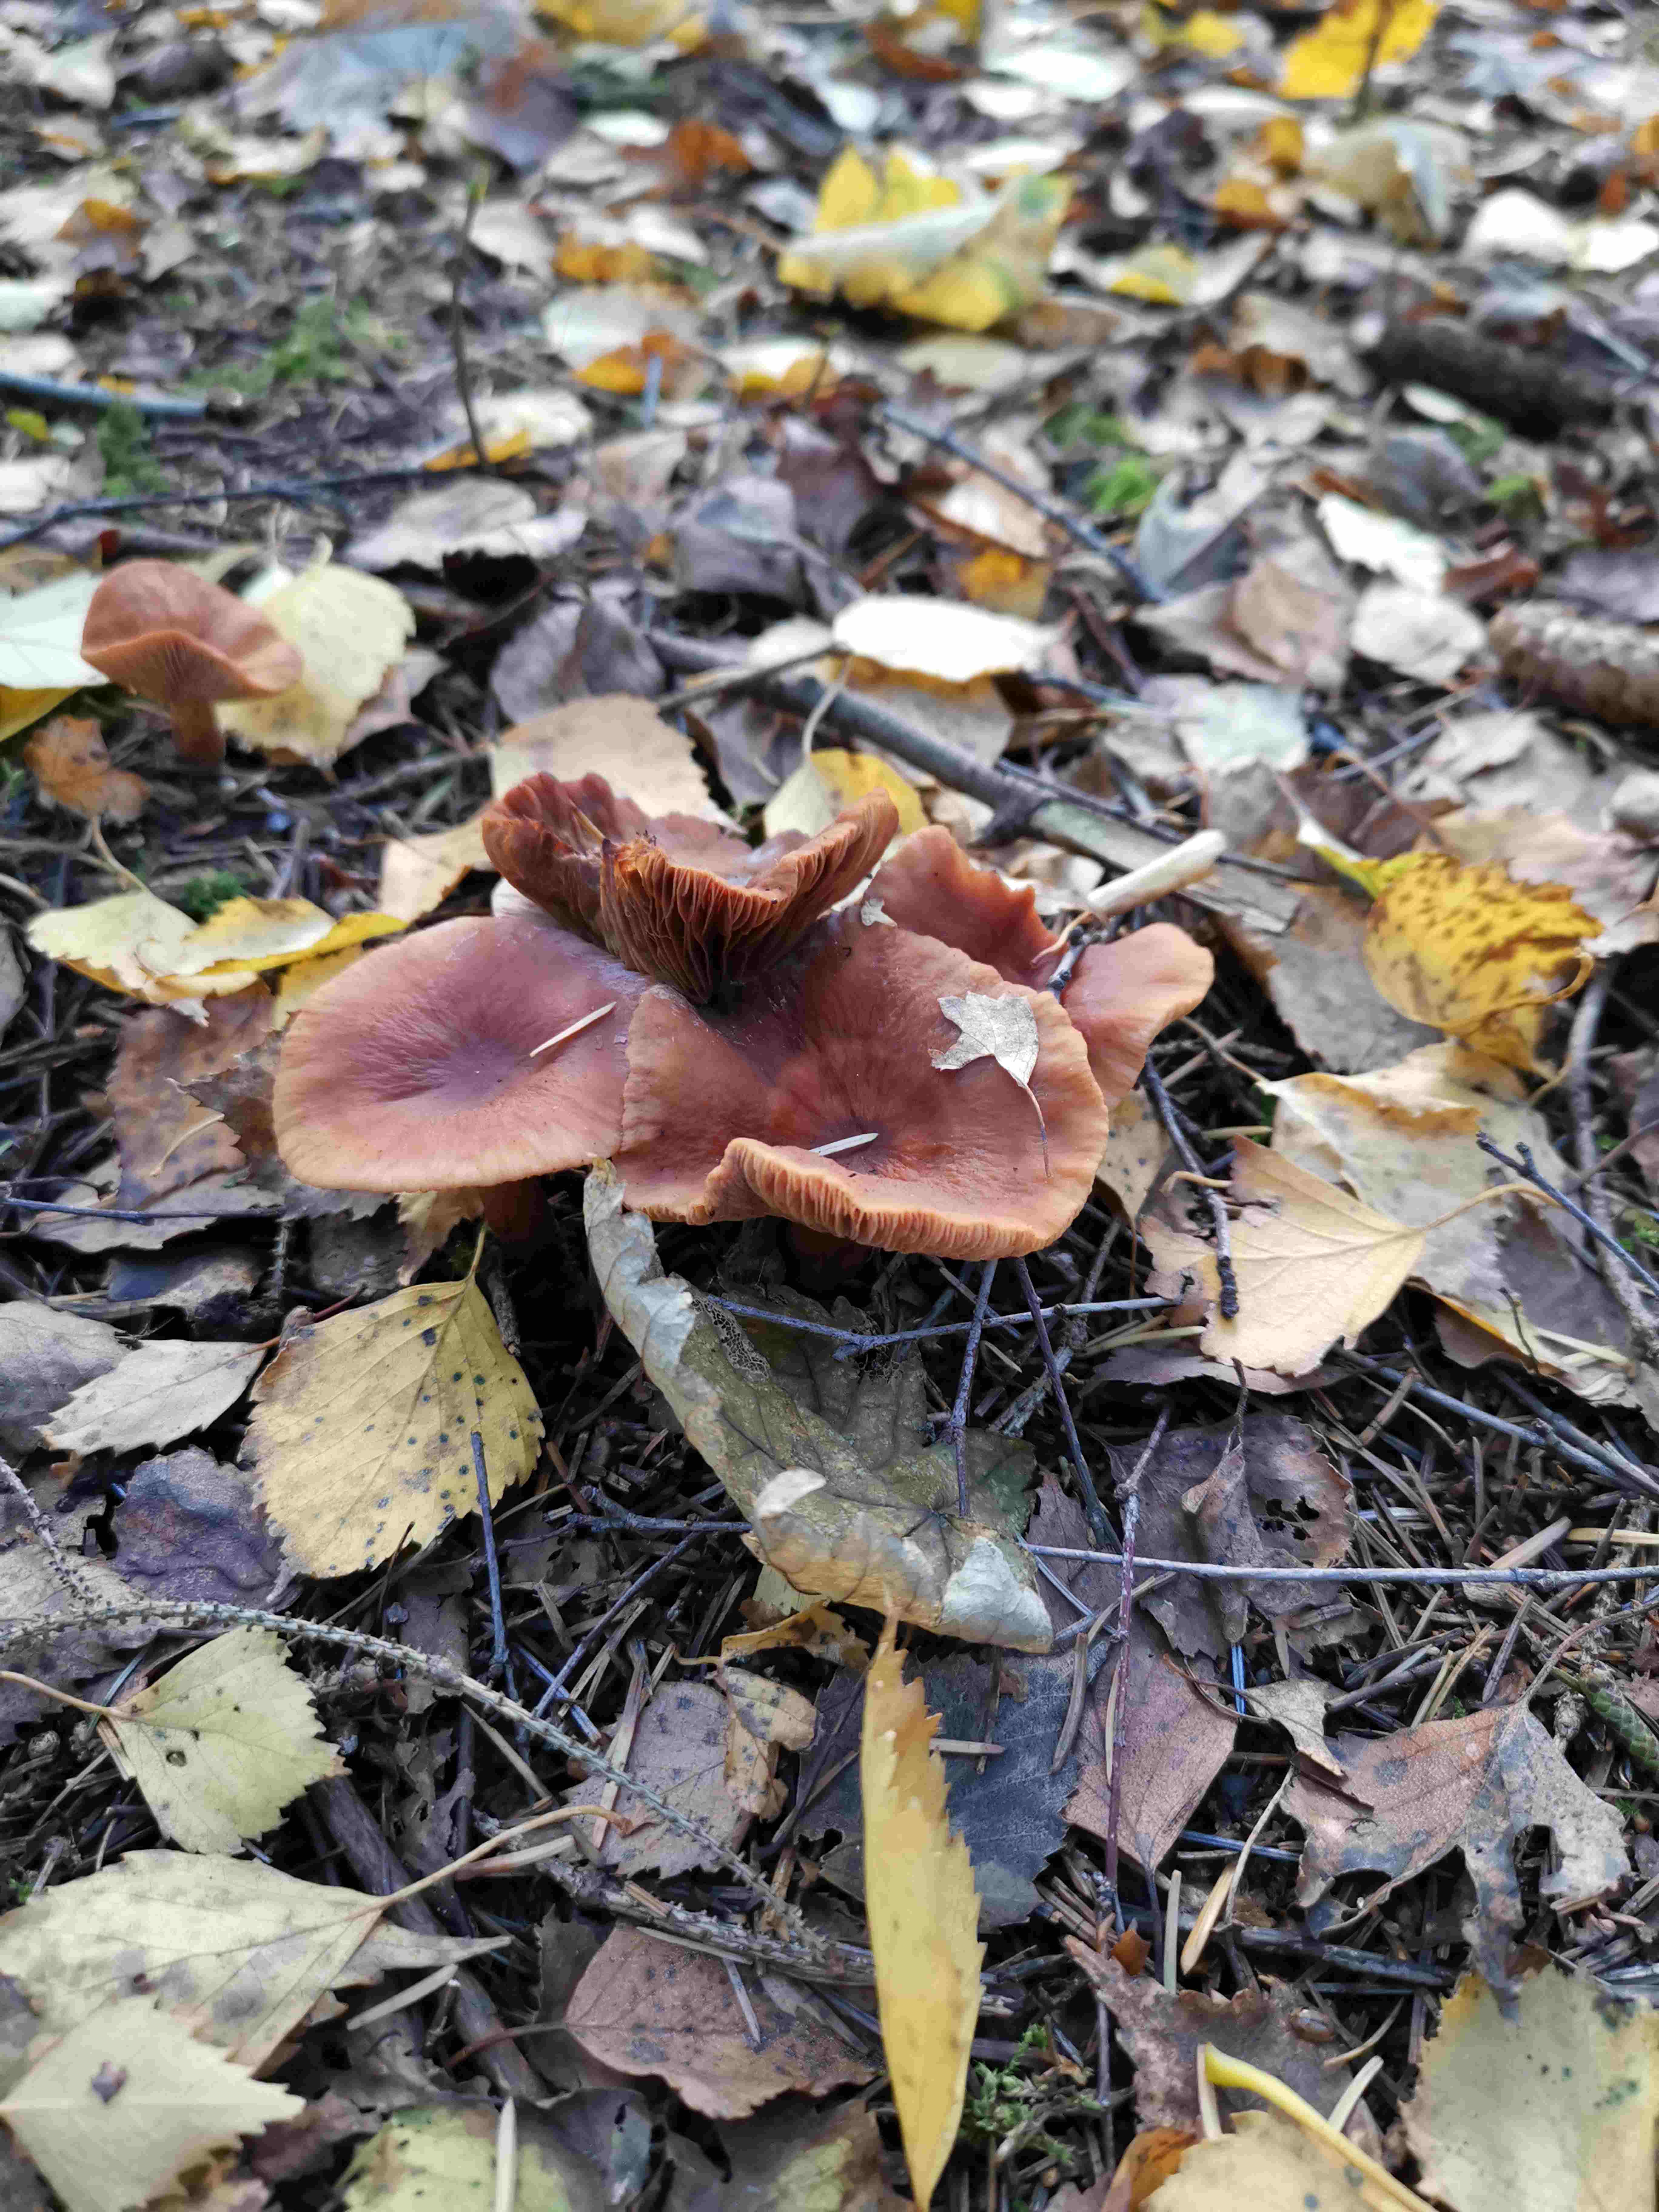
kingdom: Fungi
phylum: Basidiomycota
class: Agaricomycetes
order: Russulales
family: Russulaceae
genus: Lactarius
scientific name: Lactarius
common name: mælkehat
